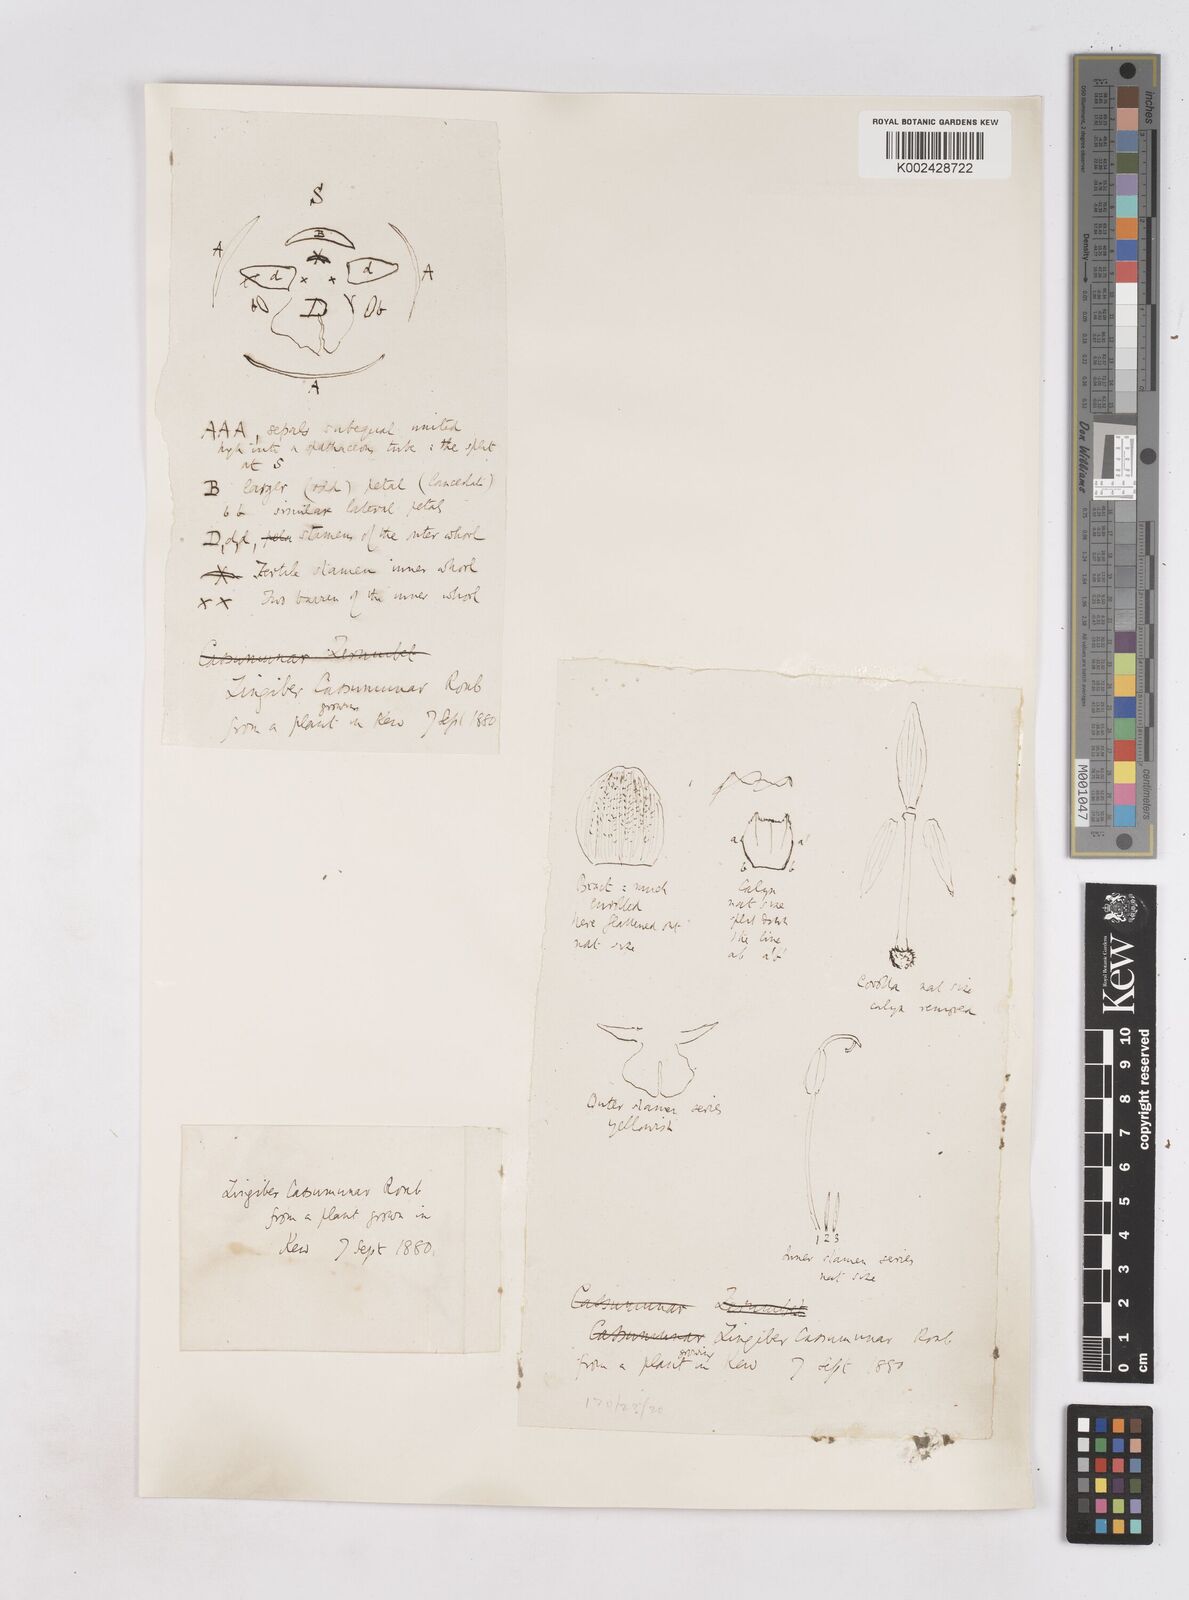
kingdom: Plantae
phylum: Tracheophyta
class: Liliopsida
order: Zingiberales
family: Zingiberaceae
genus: Zingiber
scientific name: Zingiber montanum
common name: Bengal ginger
